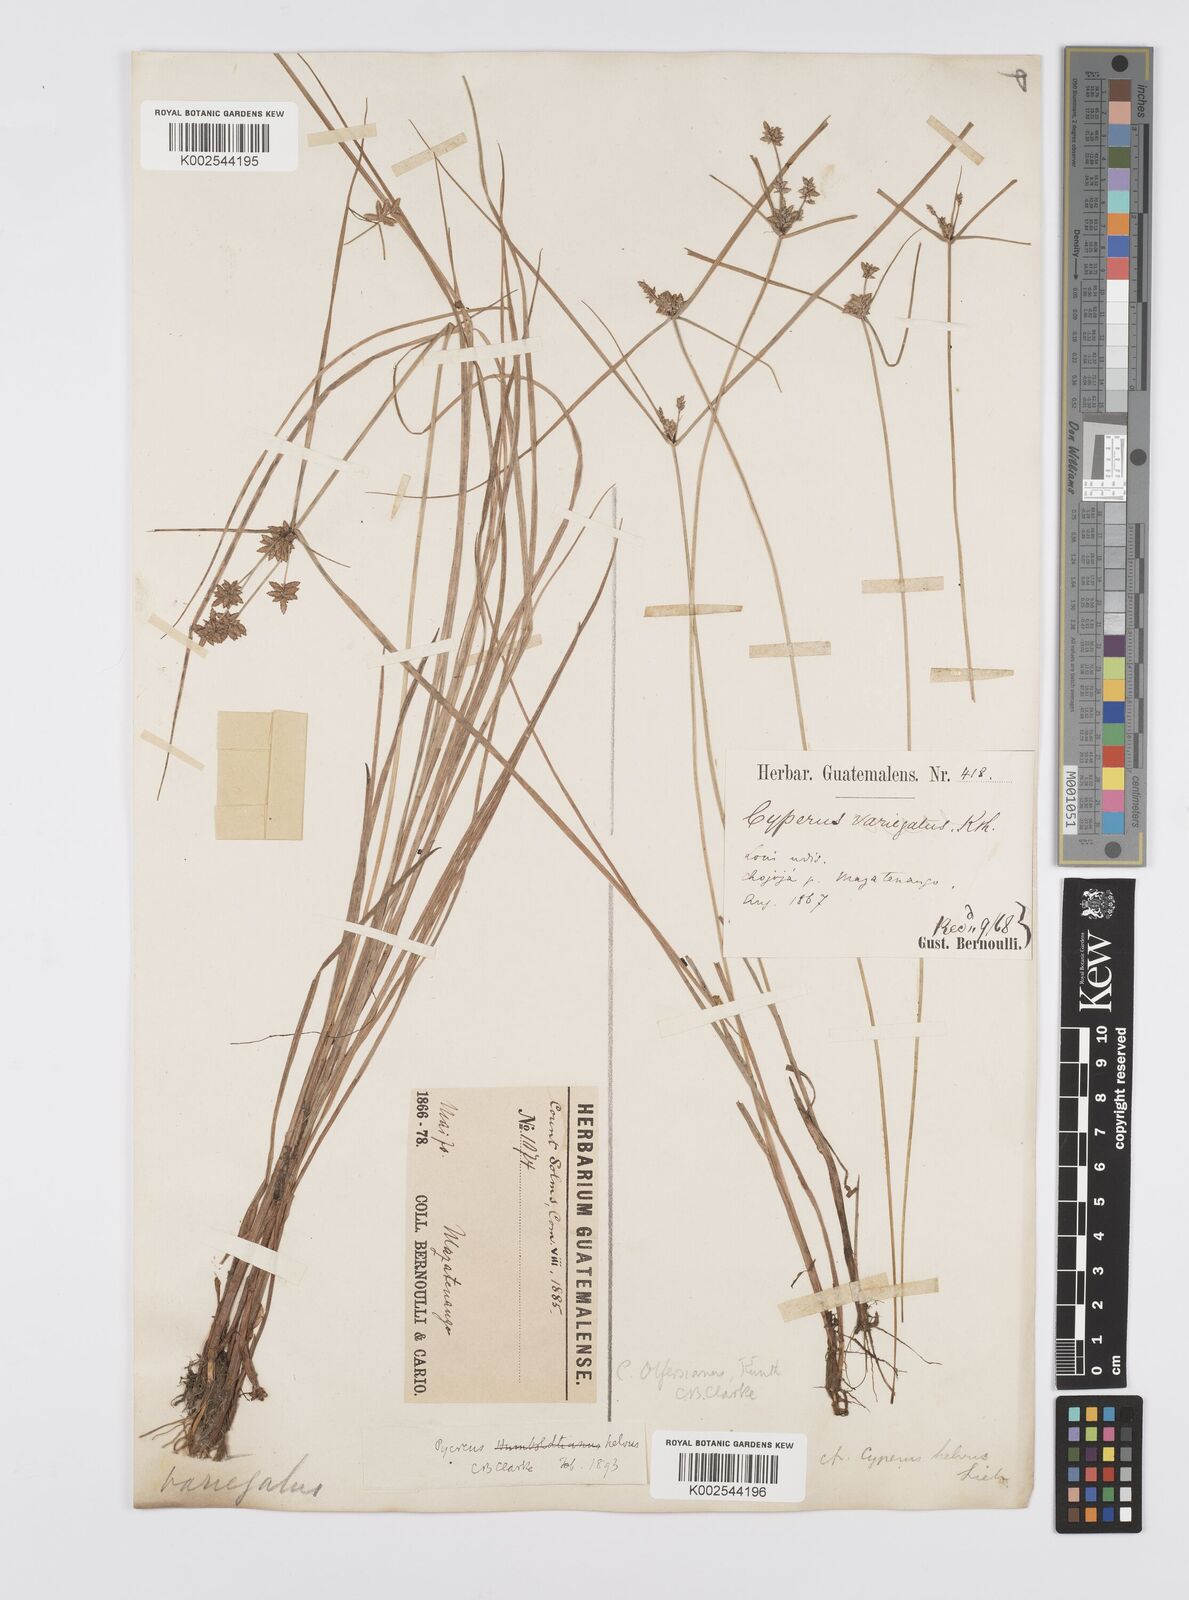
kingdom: Plantae
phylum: Tracheophyta
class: Liliopsida
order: Poales
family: Cyperaceae
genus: Cyperus
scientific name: Cyperus
